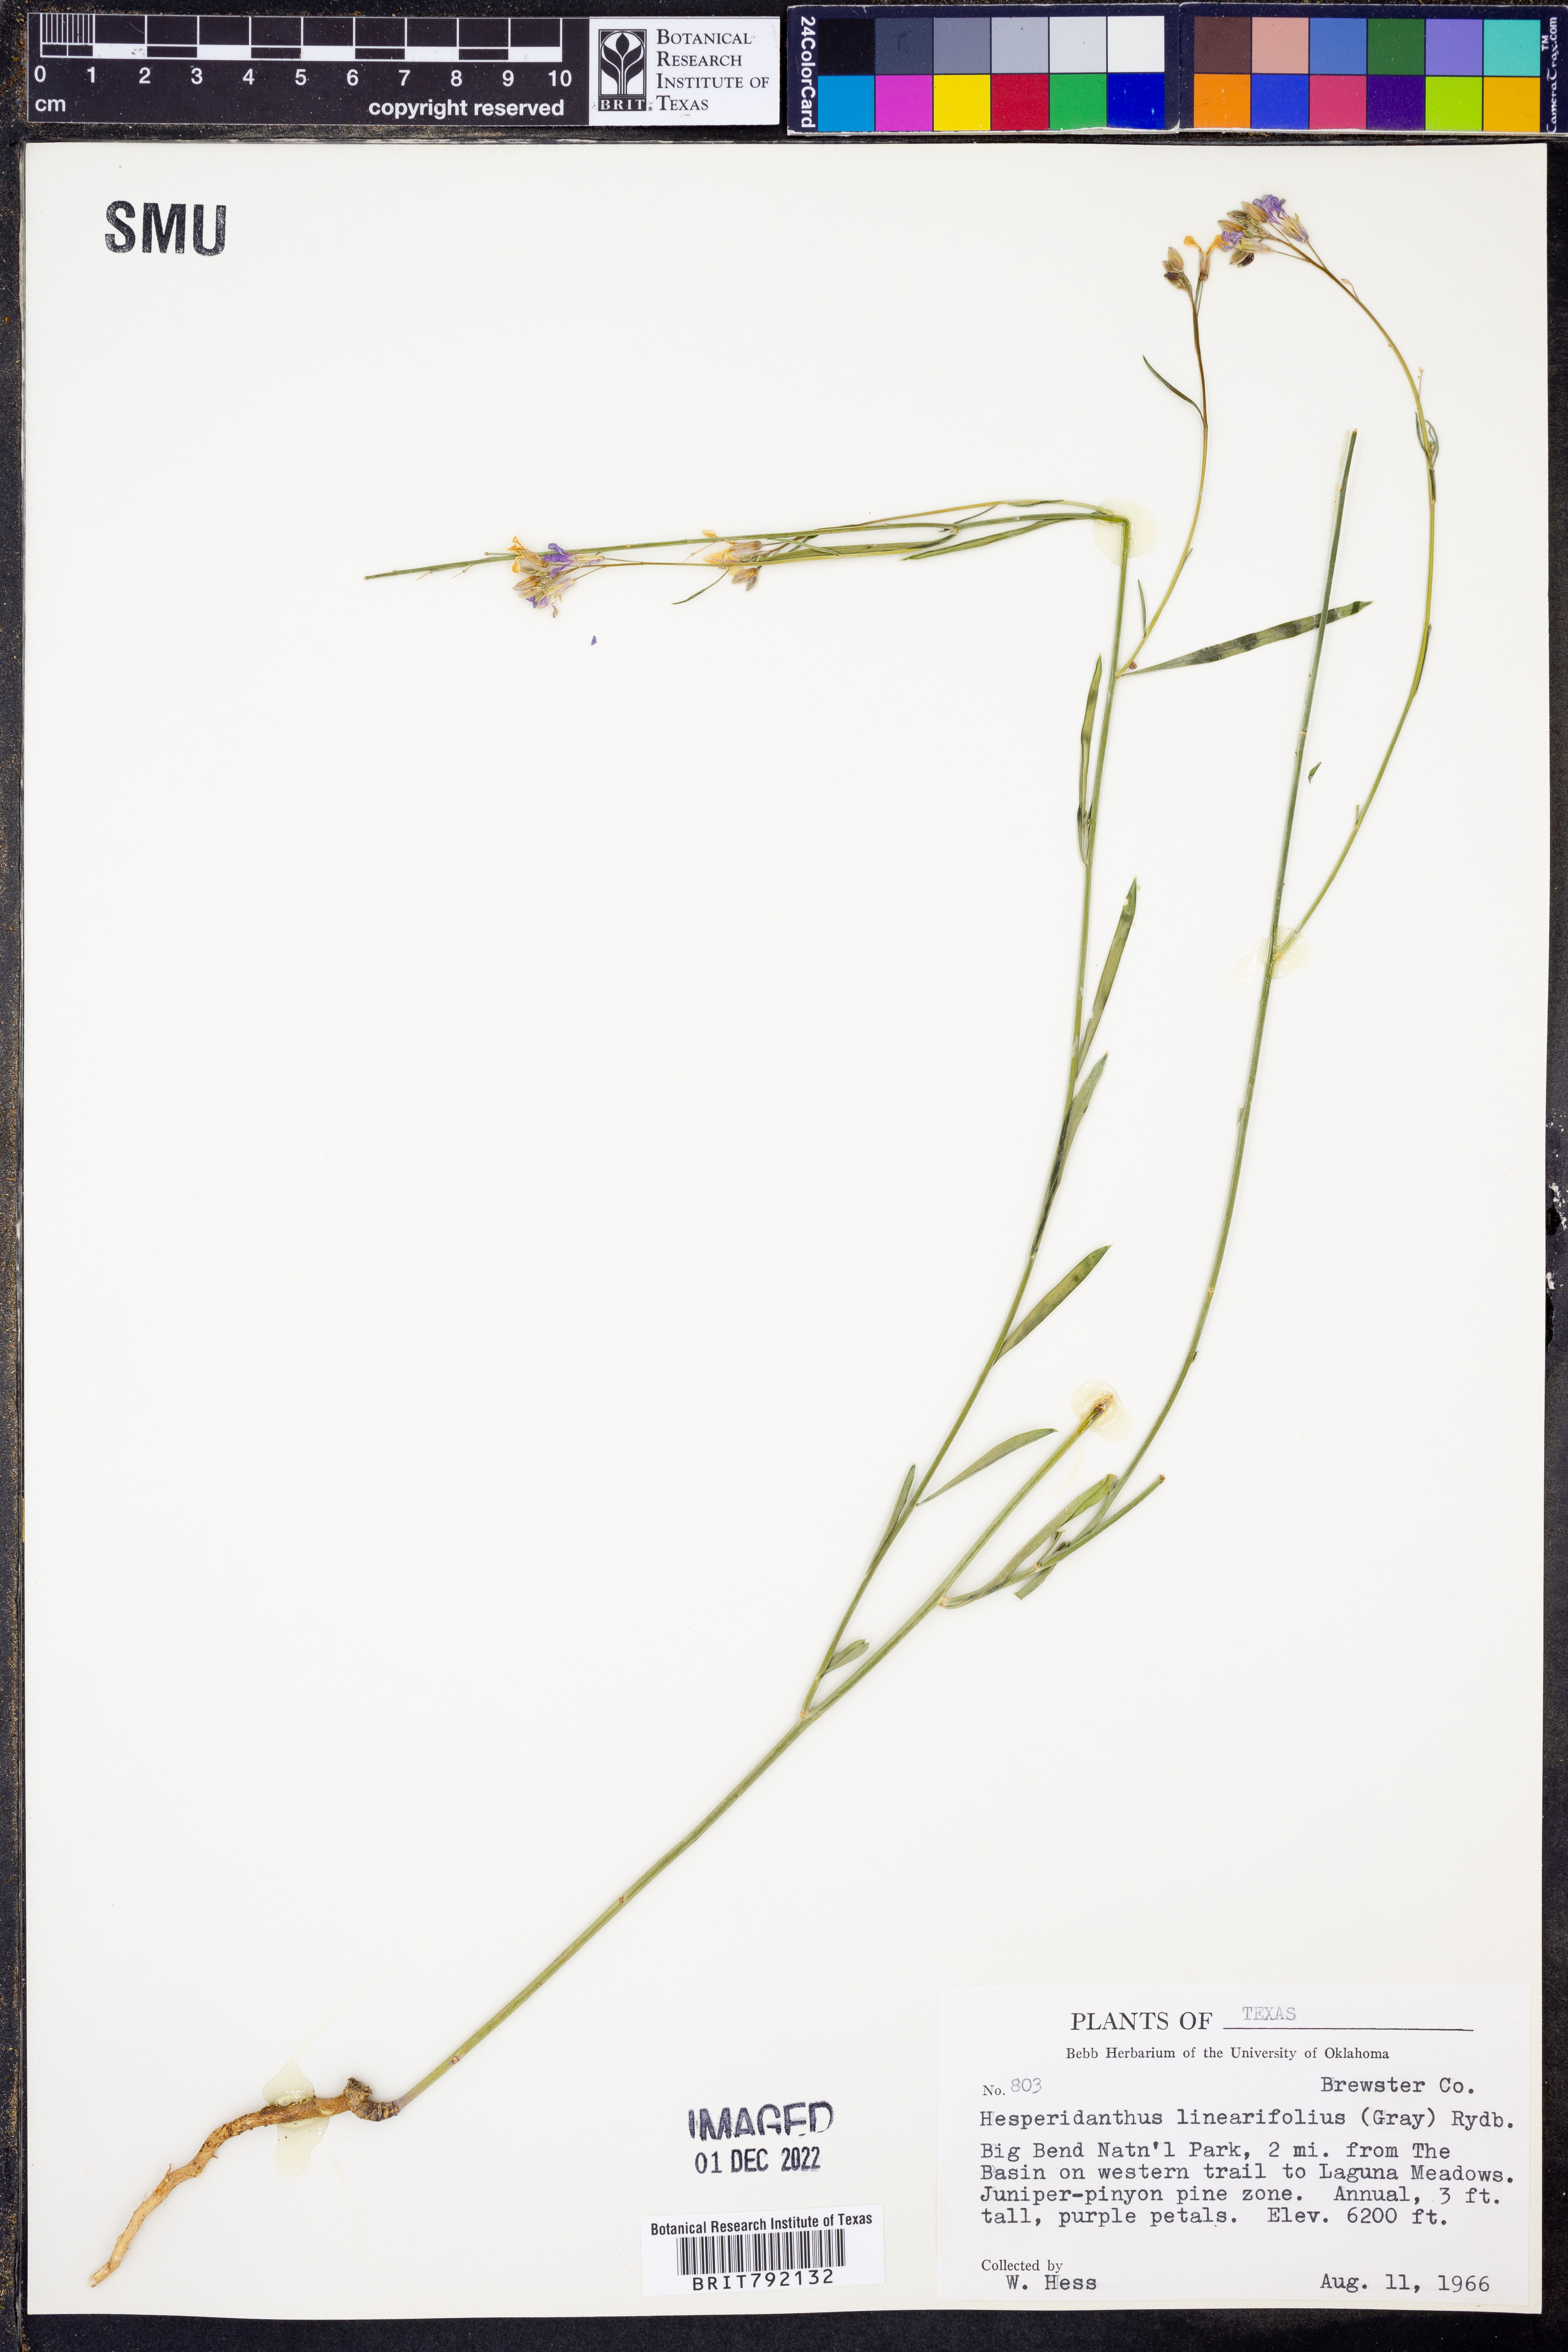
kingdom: Plantae
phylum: Tracheophyta
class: Magnoliopsida
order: Brassicales
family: Brassicaceae
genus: Hesperidanthus
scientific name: Hesperidanthus linearifolius
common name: Slim-leaf plains mustard
